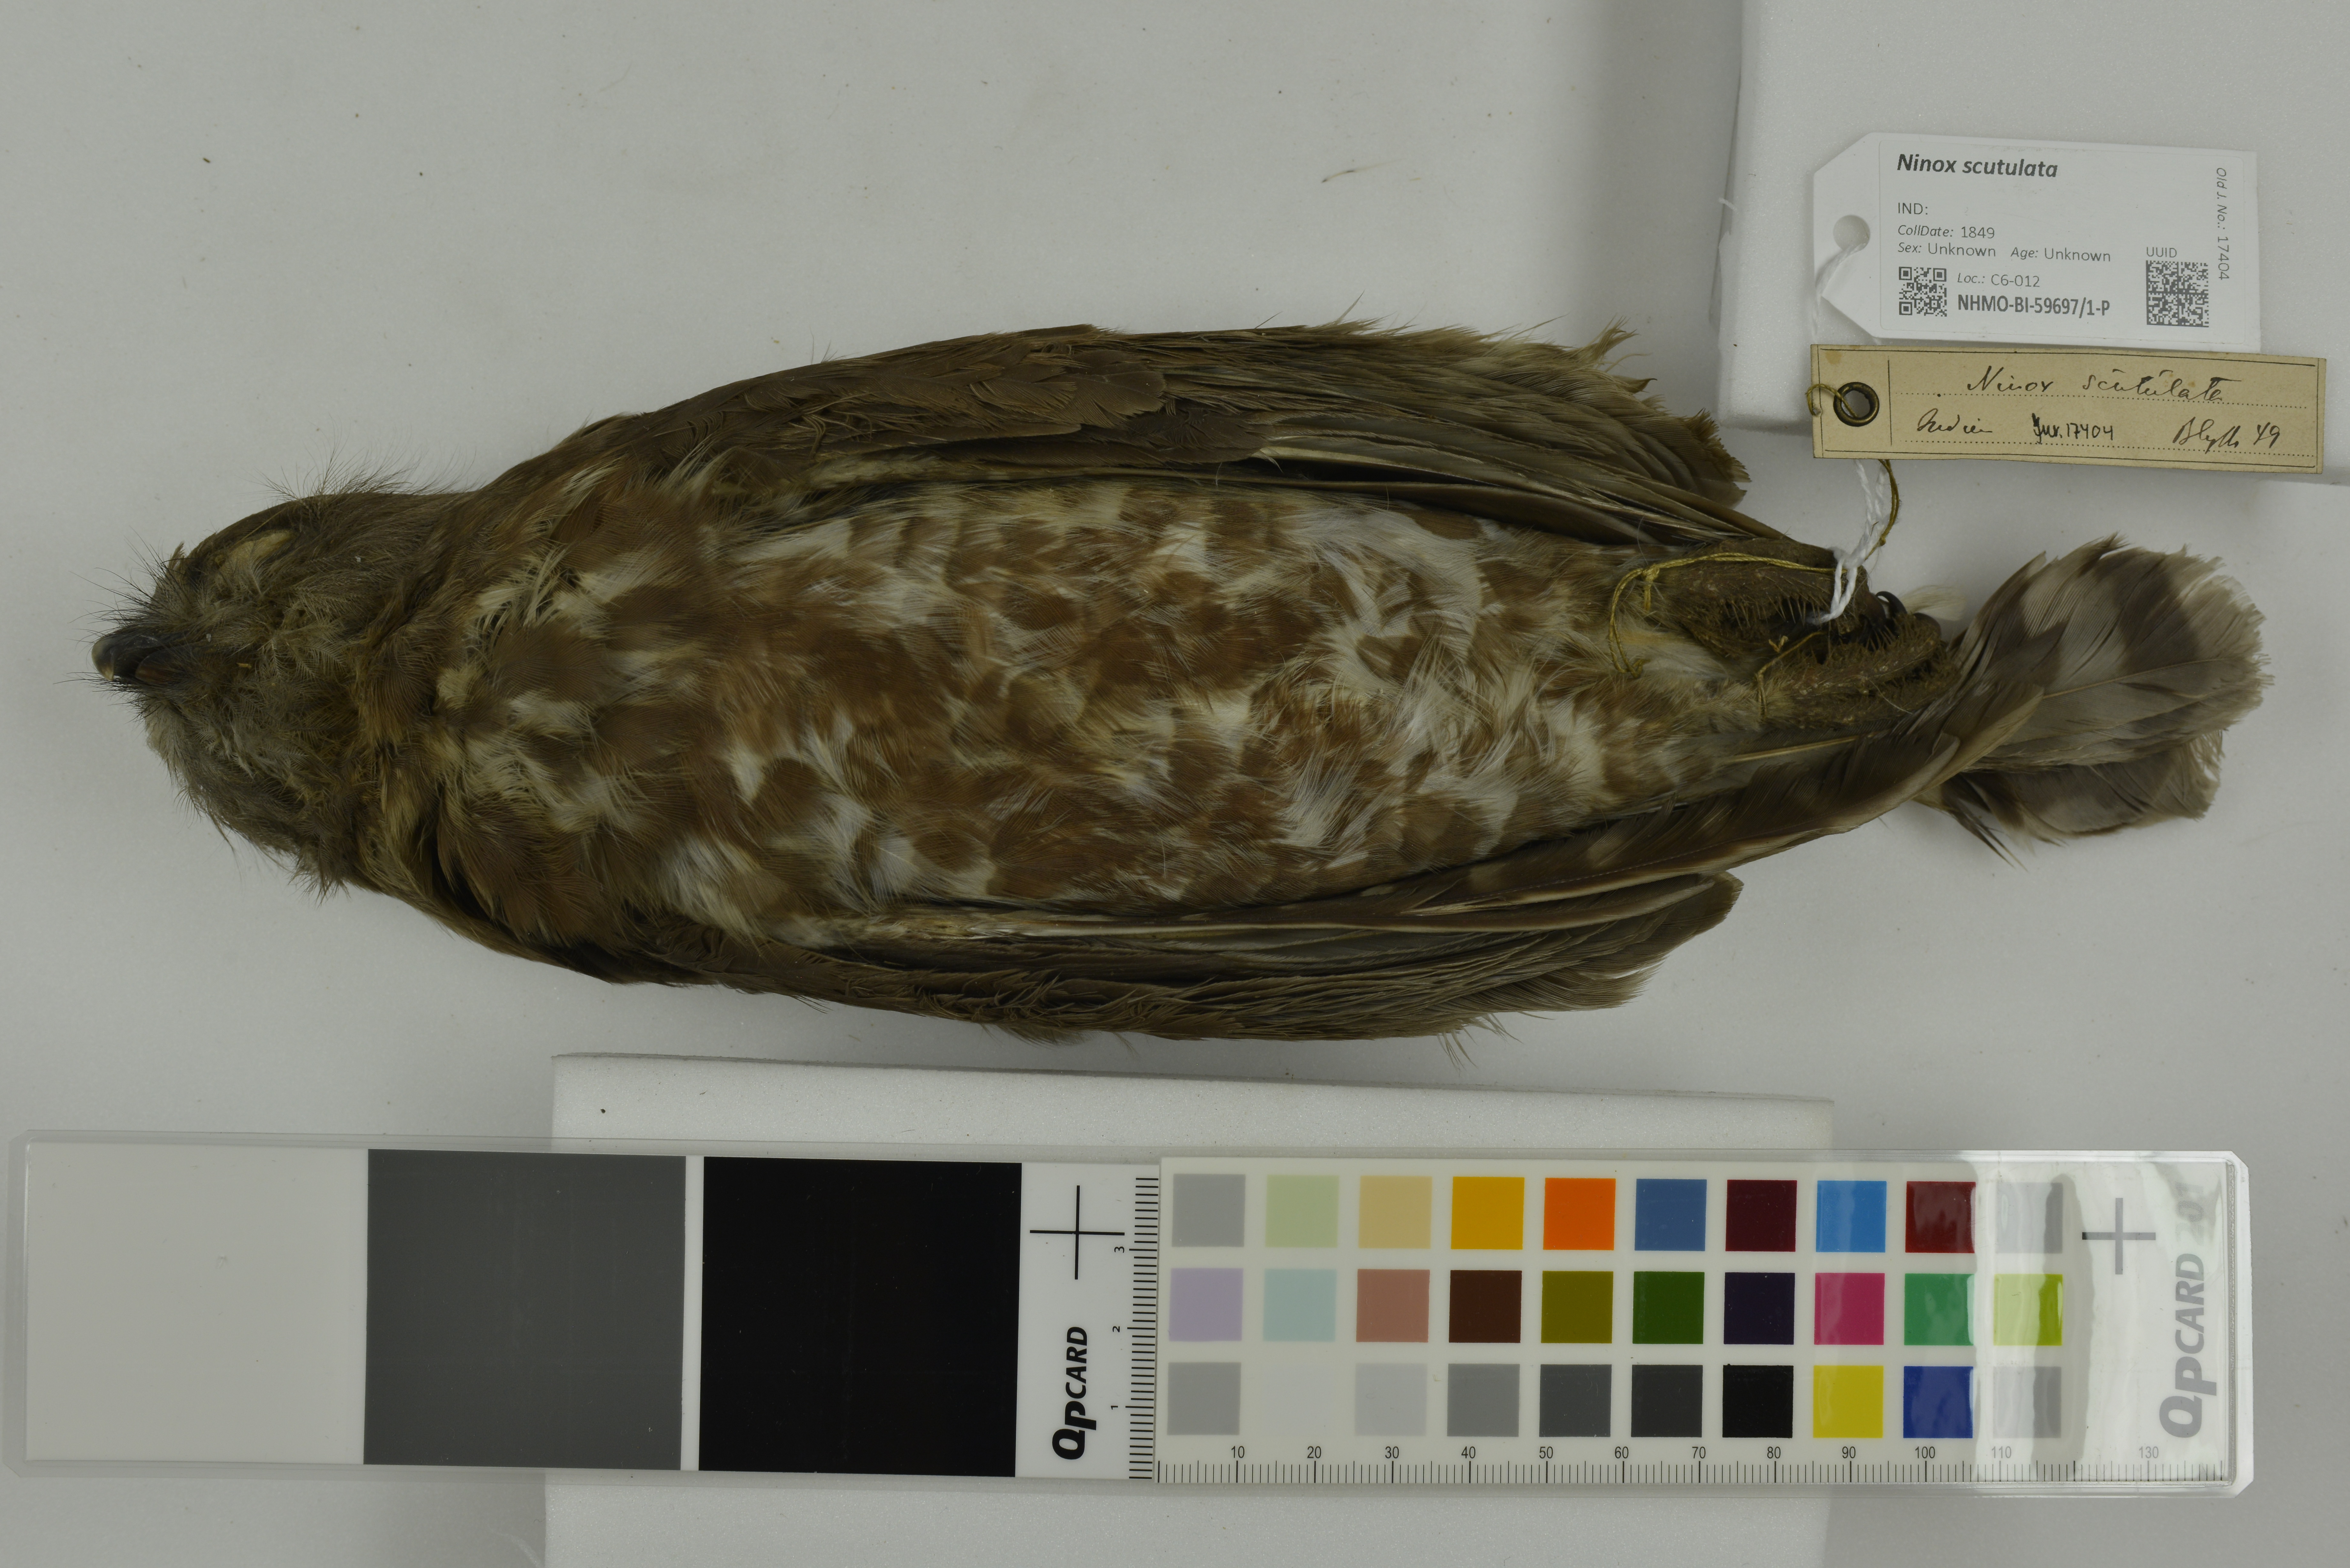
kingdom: Animalia
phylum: Chordata
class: Aves
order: Strigiformes
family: Strigidae
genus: Ninox
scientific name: Ninox scutulata
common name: Brown hawk-owl
